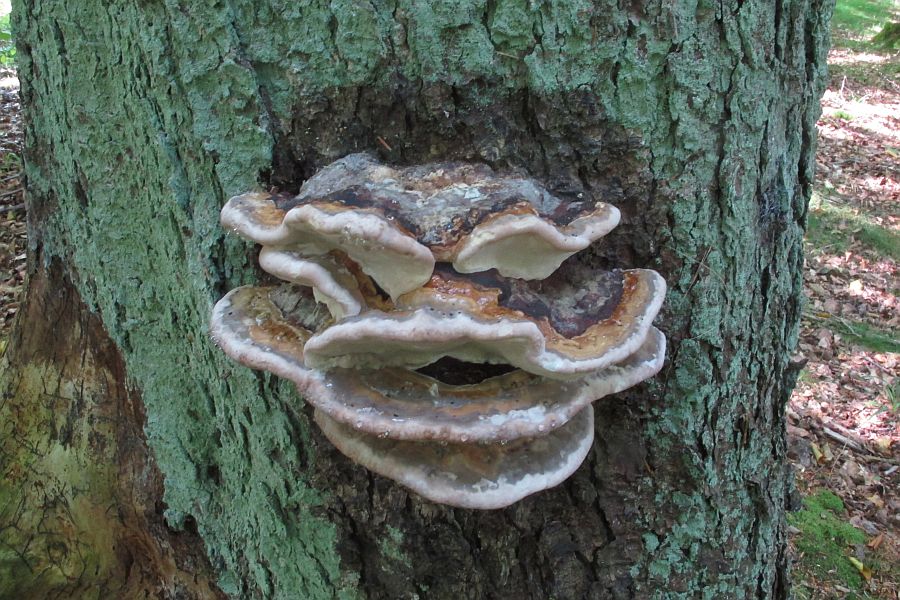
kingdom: Fungi
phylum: Basidiomycota
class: Agaricomycetes
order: Polyporales
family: Fomitopsidaceae
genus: Fomitopsis
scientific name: Fomitopsis pinicola
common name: randbæltet hovporesvamp
